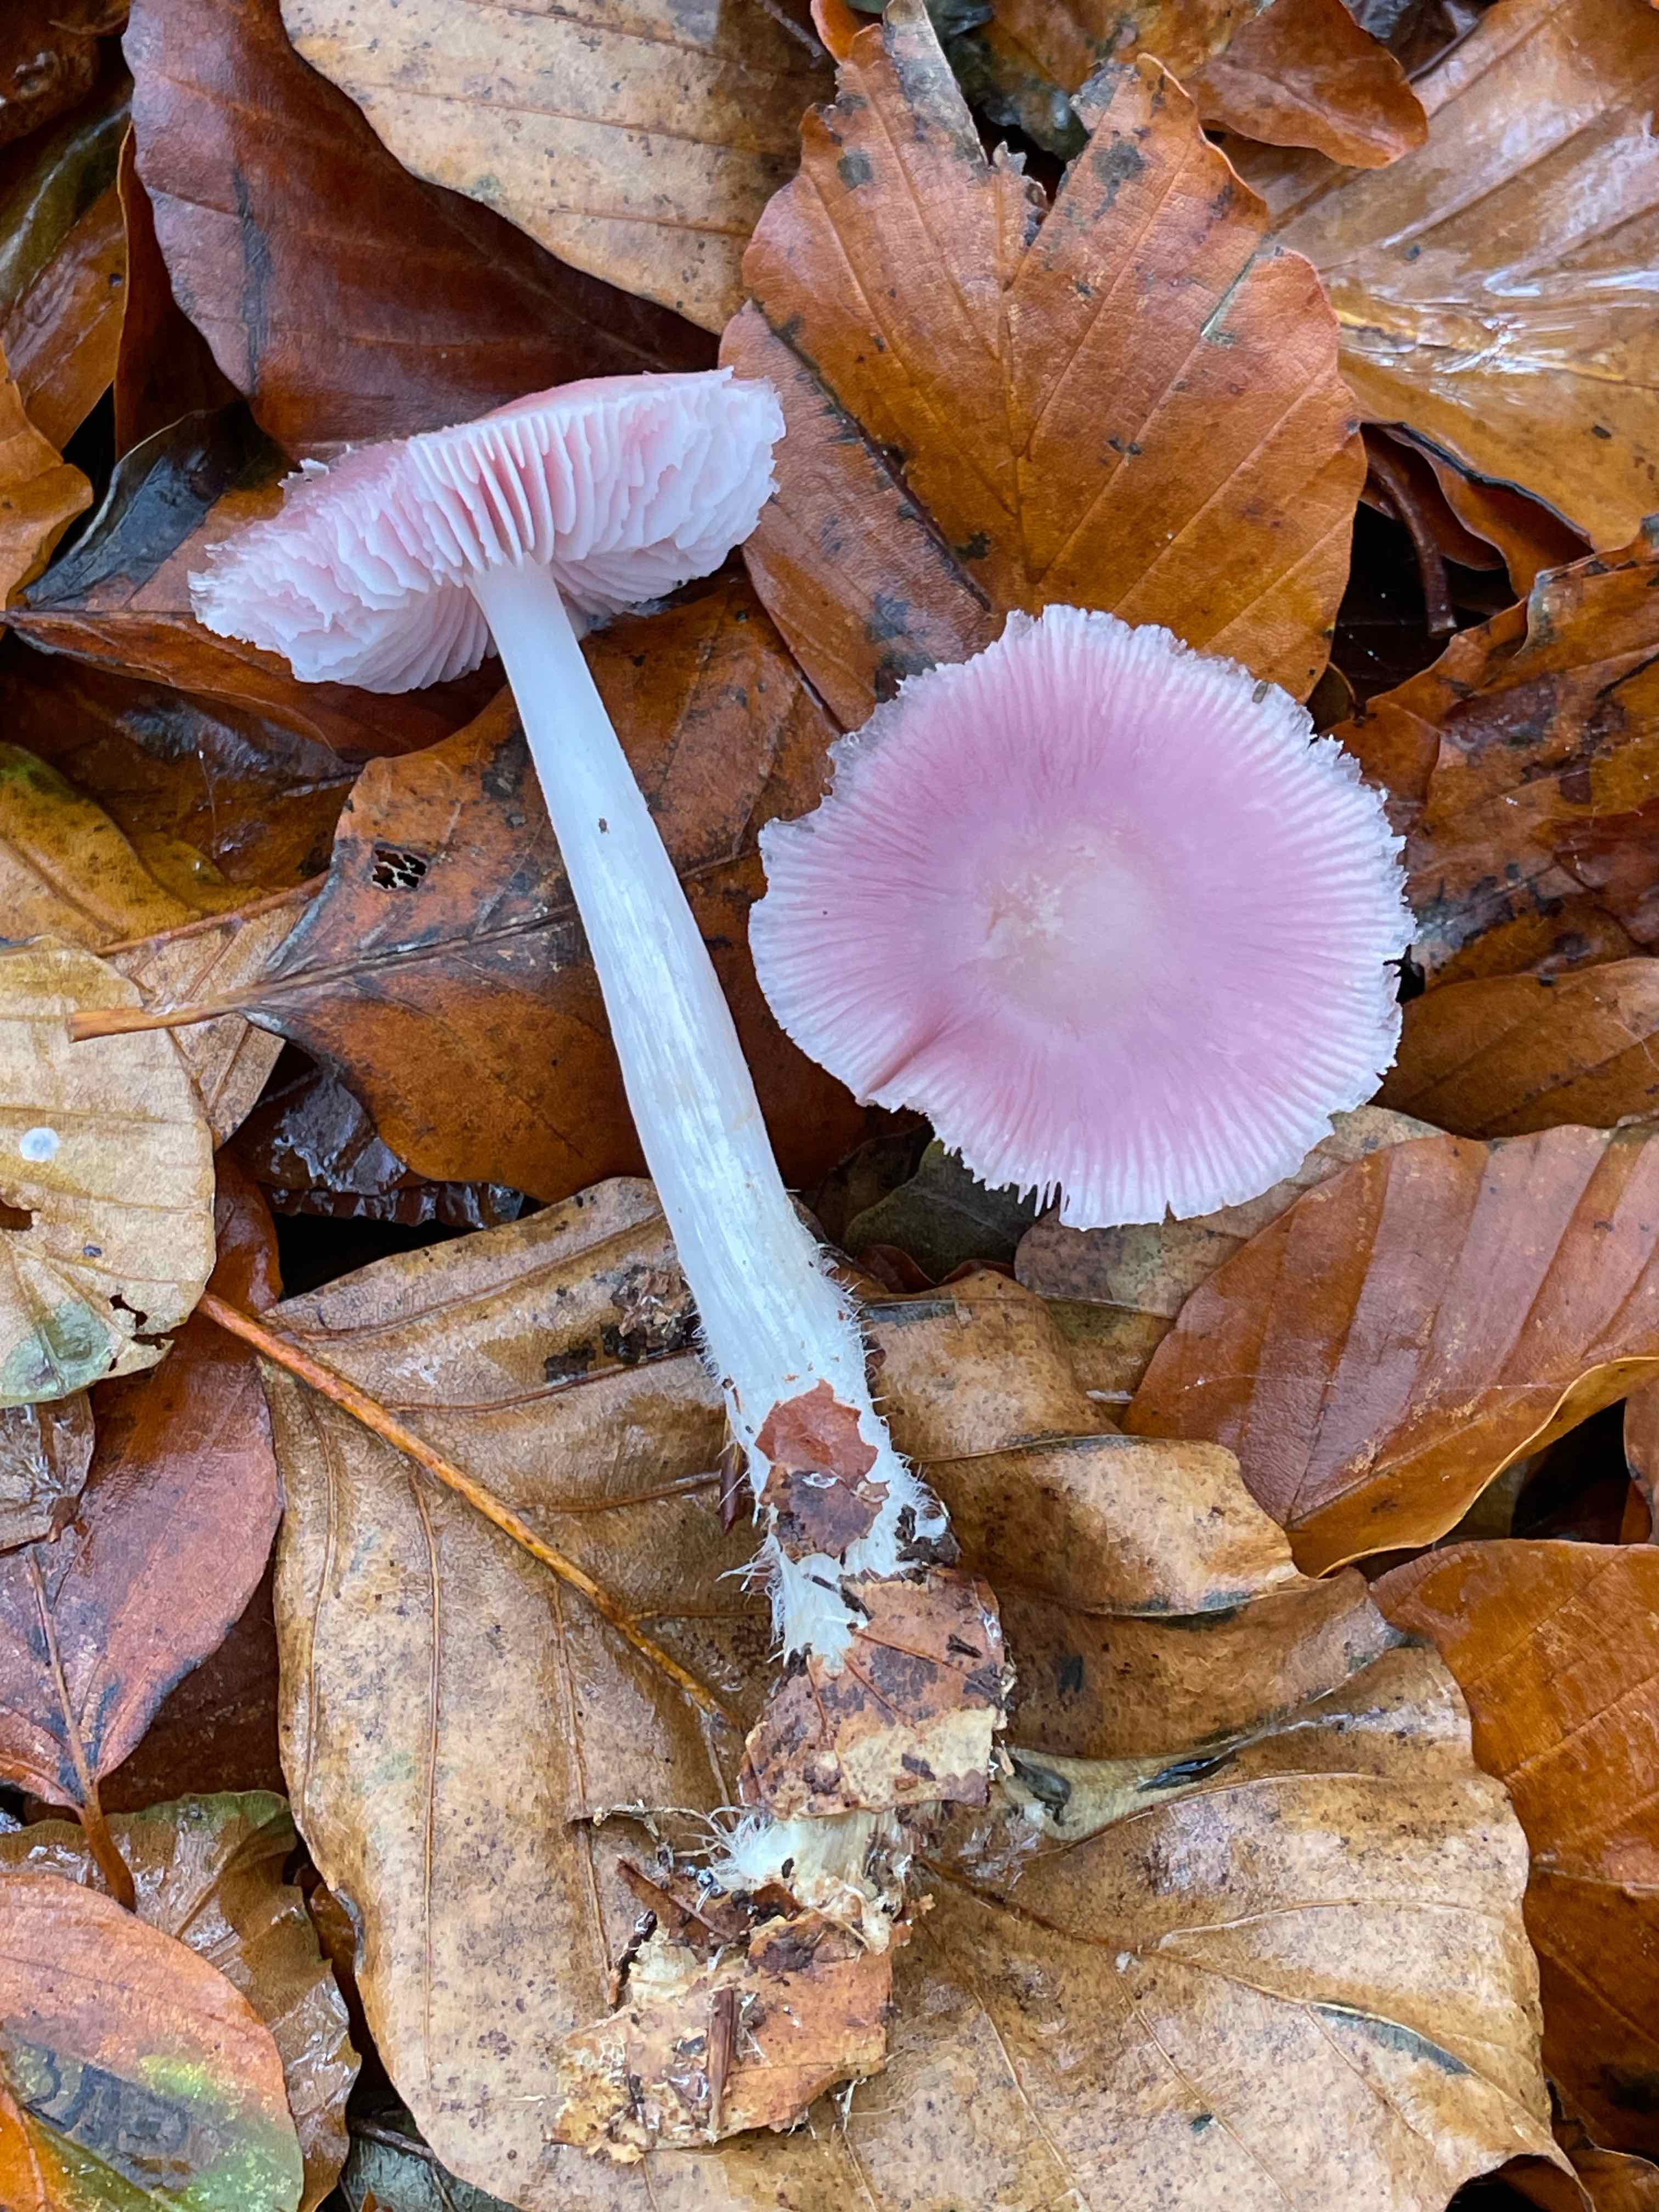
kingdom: Fungi
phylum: Basidiomycota
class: Agaricomycetes
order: Agaricales
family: Mycenaceae
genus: Mycena
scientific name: Mycena rosea
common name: rosa huesvamp
